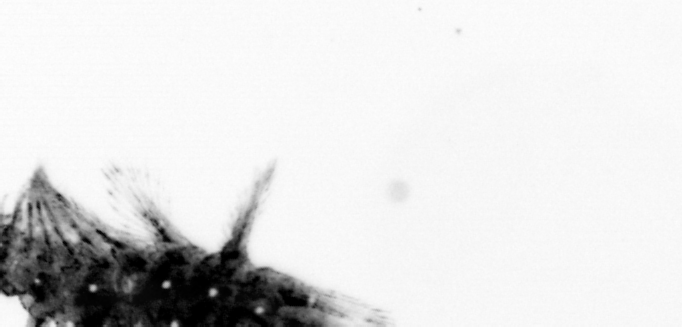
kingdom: Animalia
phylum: Annelida
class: Polychaeta
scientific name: Polychaeta
